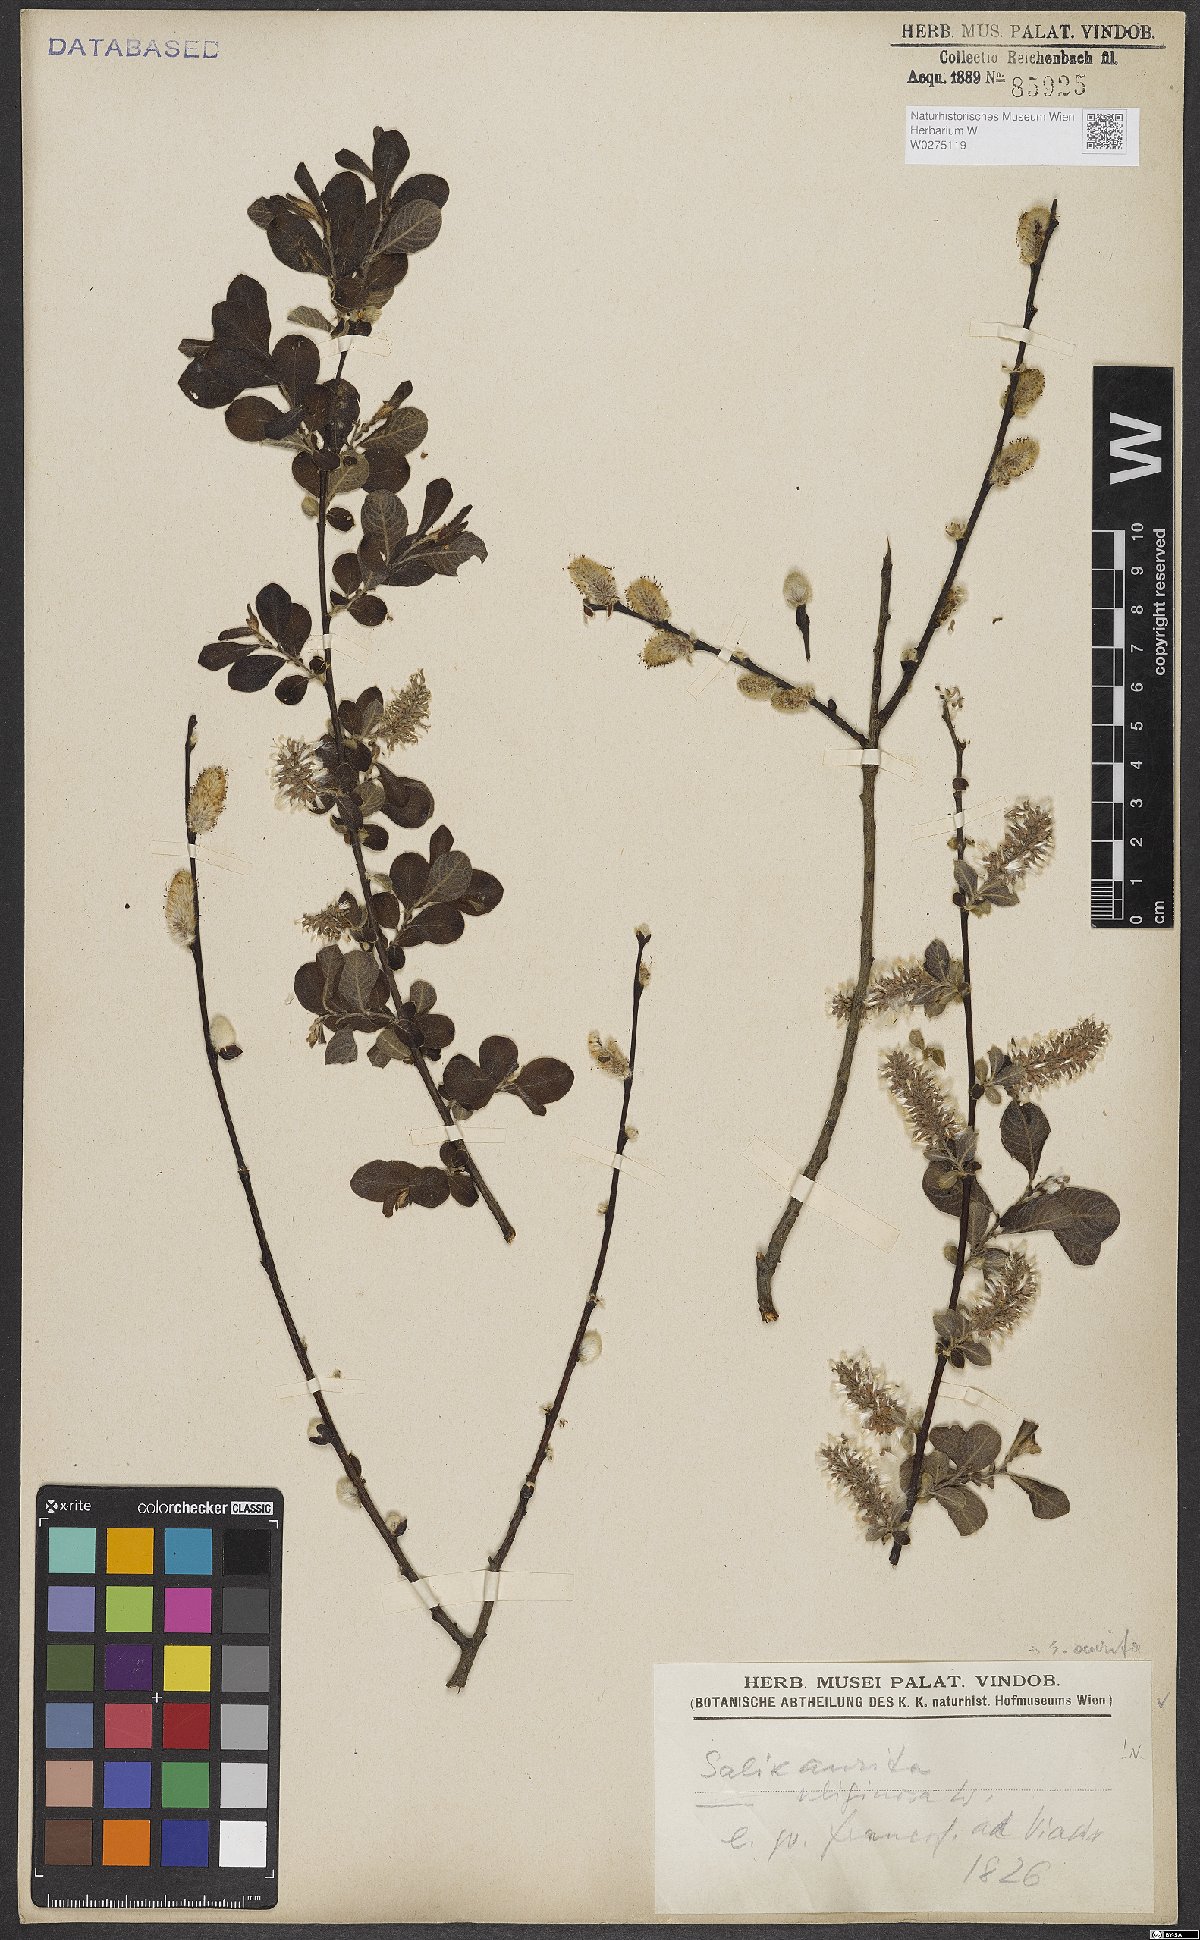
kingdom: Plantae
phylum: Tracheophyta
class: Magnoliopsida
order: Malpighiales
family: Salicaceae
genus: Salix
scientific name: Salix aurita
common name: Eared willow
